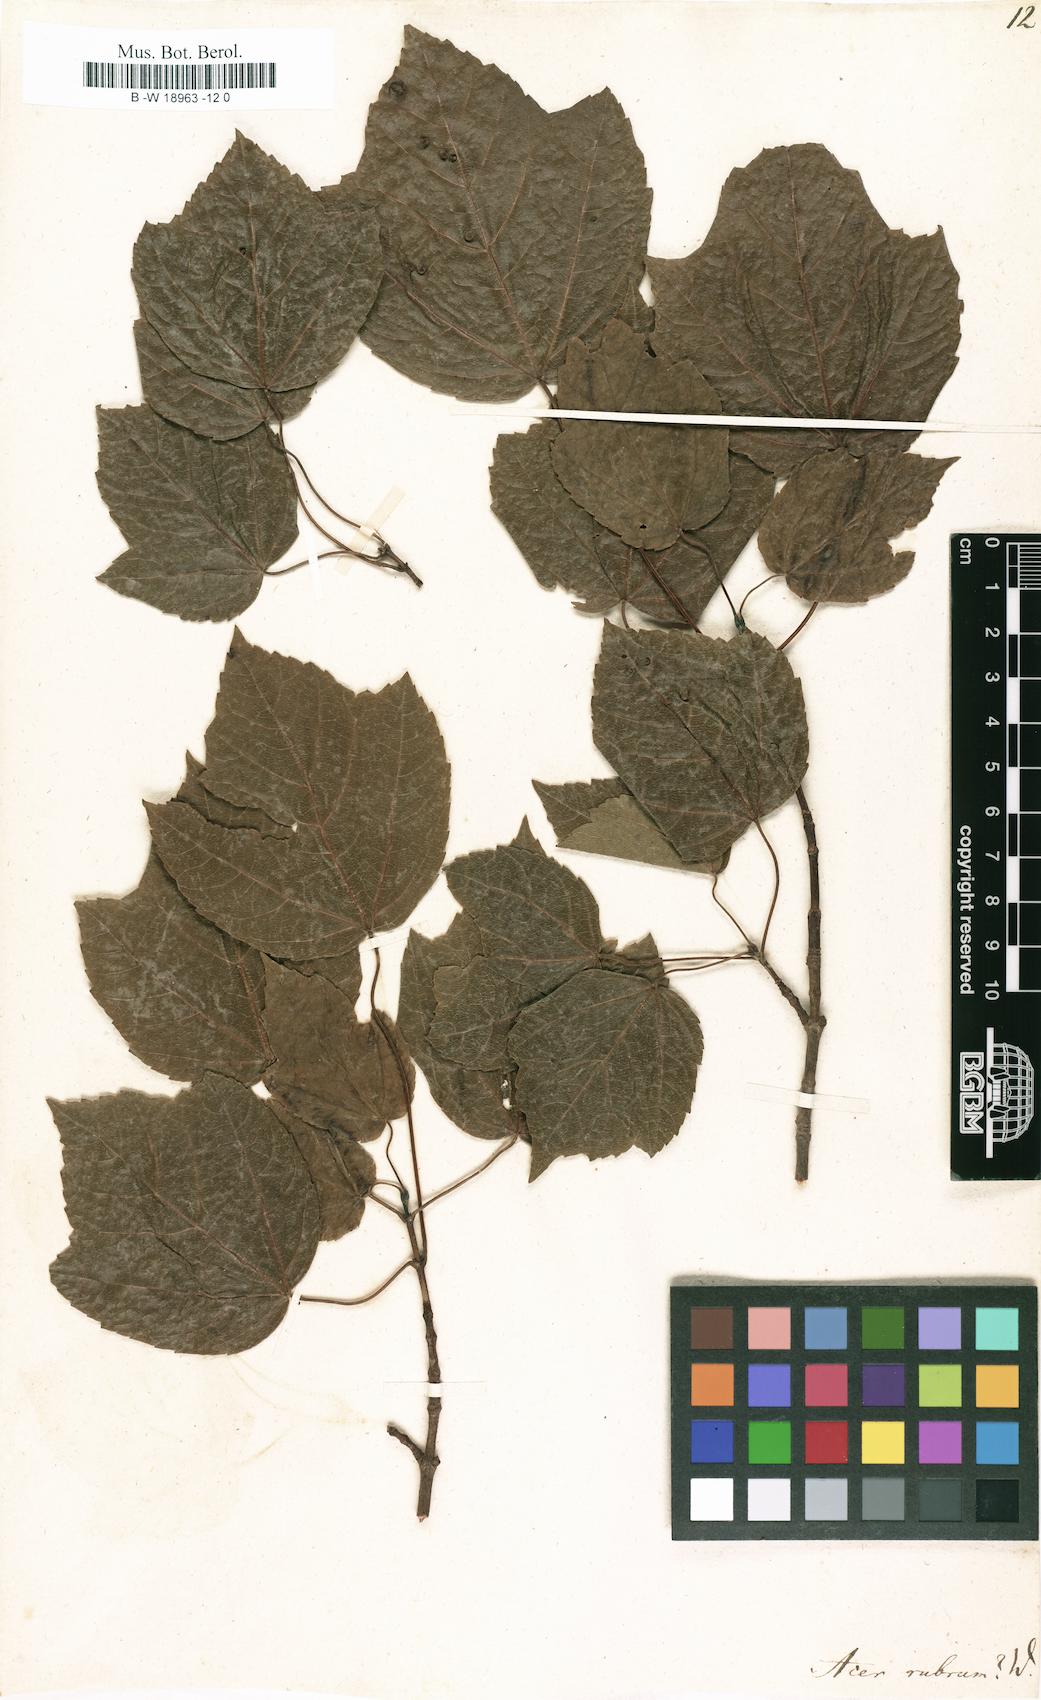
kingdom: Plantae
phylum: Tracheophyta
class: Magnoliopsida
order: Sapindales
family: Sapindaceae
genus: Acer
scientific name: Acer rubrum
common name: Red maple
